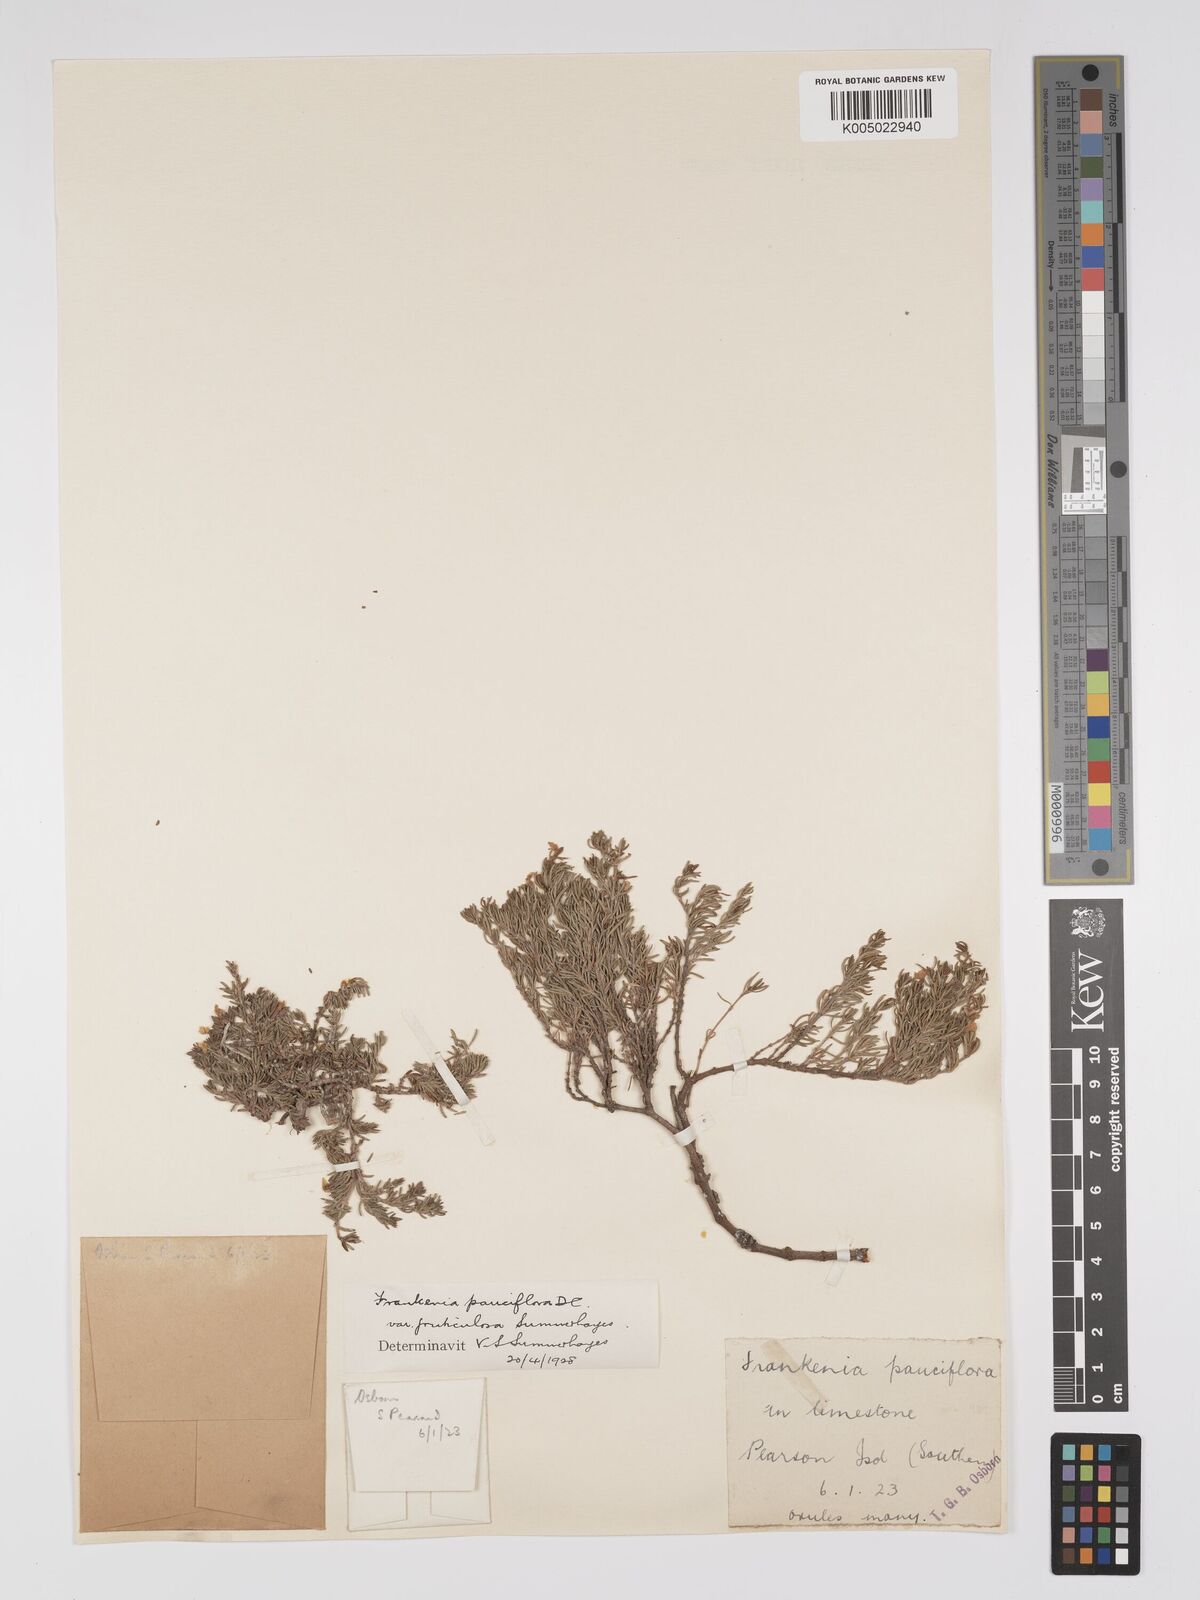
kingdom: Plantae
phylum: Tracheophyta
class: Magnoliopsida
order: Caryophyllales
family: Frankeniaceae
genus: Frankenia
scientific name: Frankenia pauciflora
